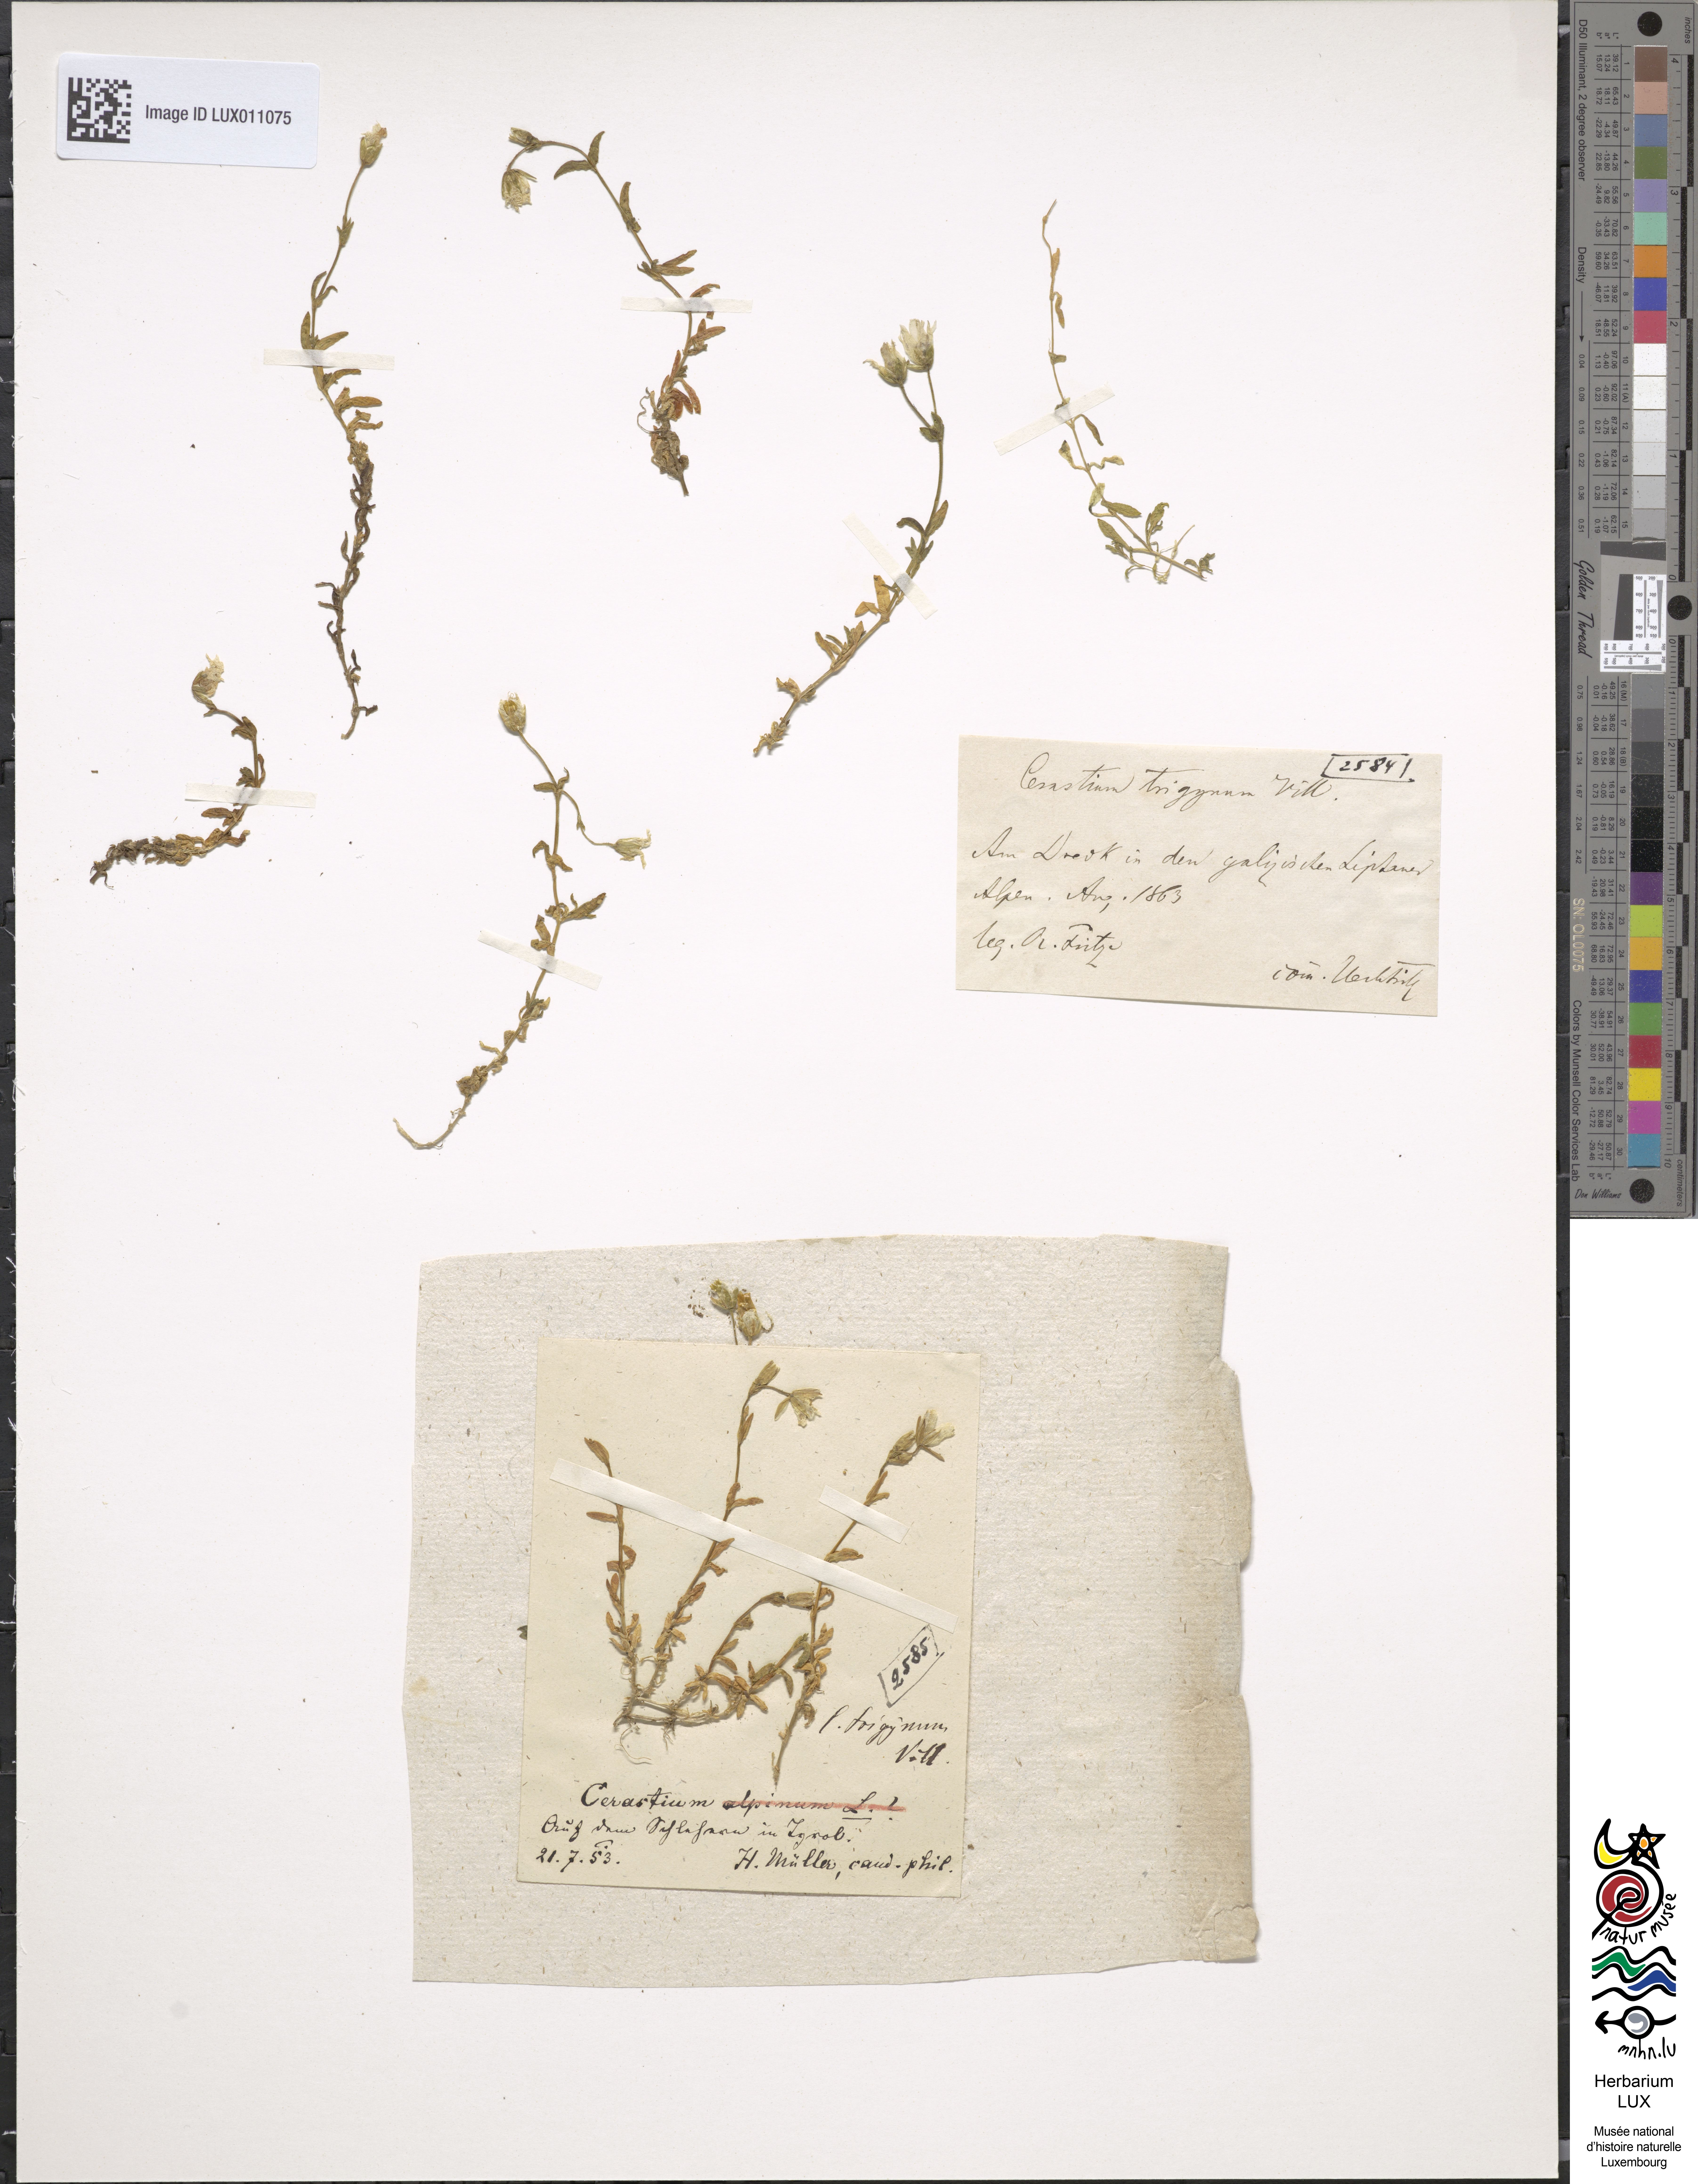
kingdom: Plantae
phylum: Tracheophyta
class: Magnoliopsida
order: Caryophyllales
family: Caryophyllaceae
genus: Dichodon
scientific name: Dichodon cerastoides
